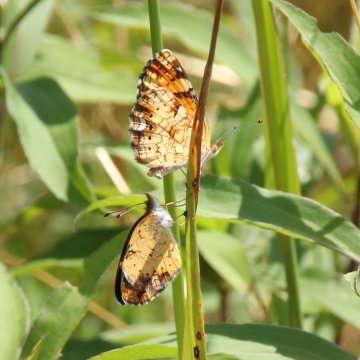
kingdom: Animalia
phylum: Arthropoda
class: Insecta
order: Lepidoptera
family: Nymphalidae
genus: Phyciodes
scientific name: Phyciodes tharos
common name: Pearl Crescent
